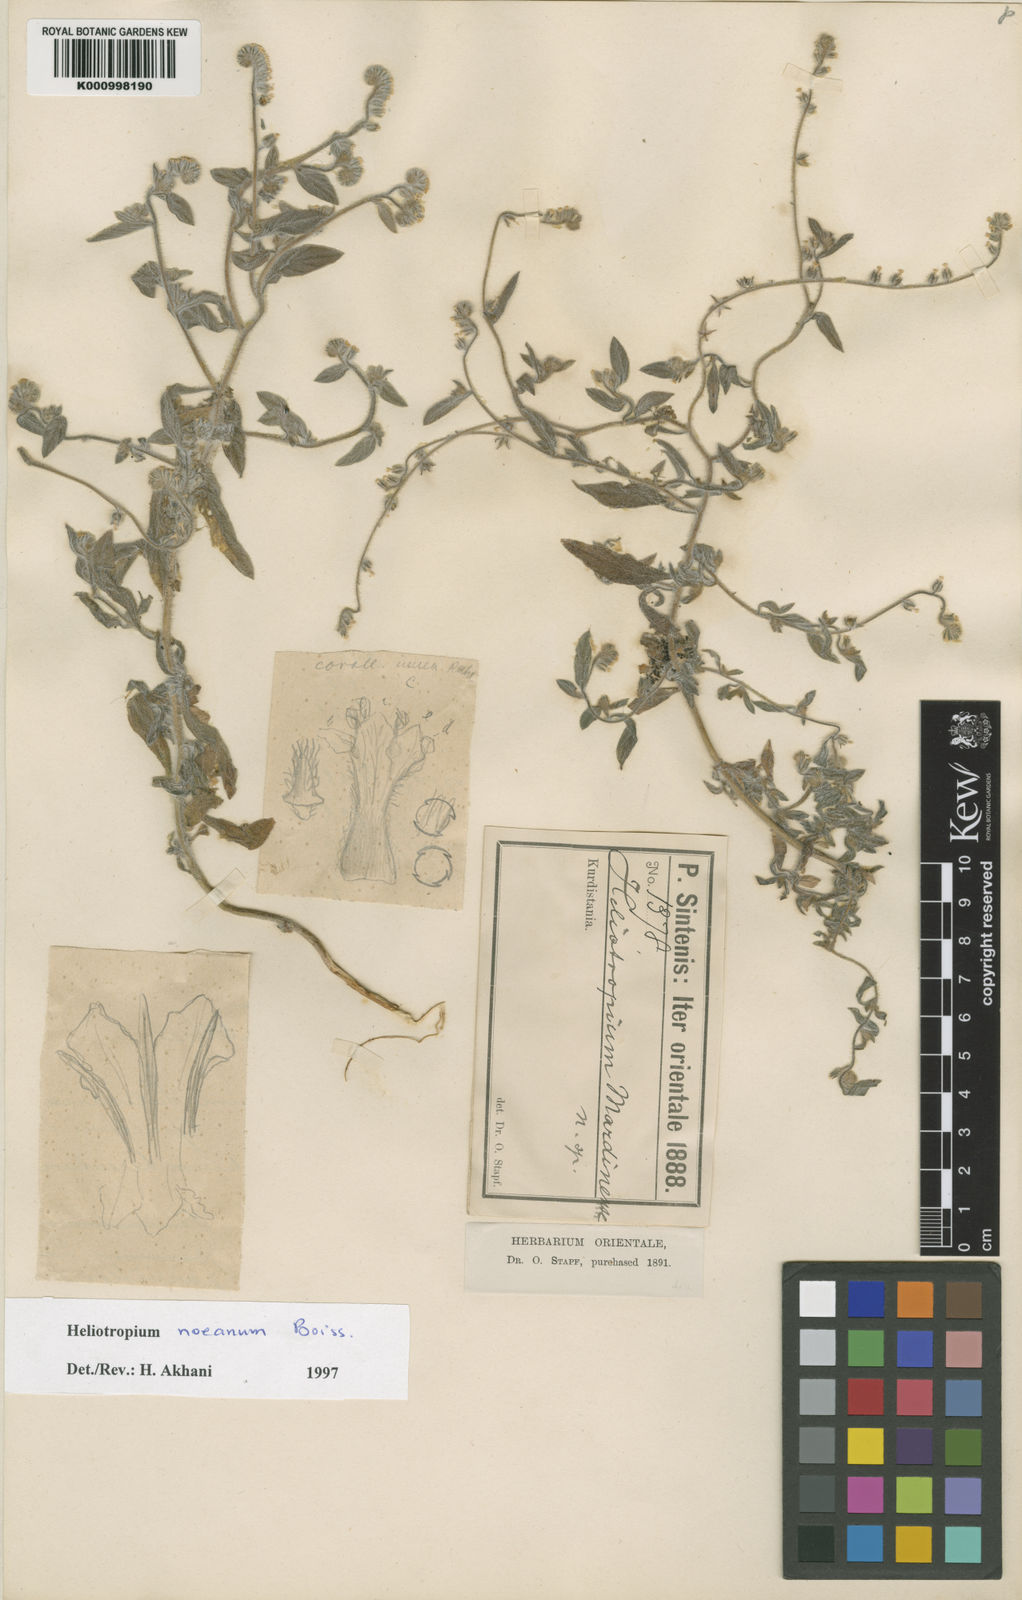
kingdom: Plantae
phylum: Tracheophyta
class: Magnoliopsida
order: Boraginales
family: Heliotropiaceae
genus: Heliotropium
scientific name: Heliotropium
